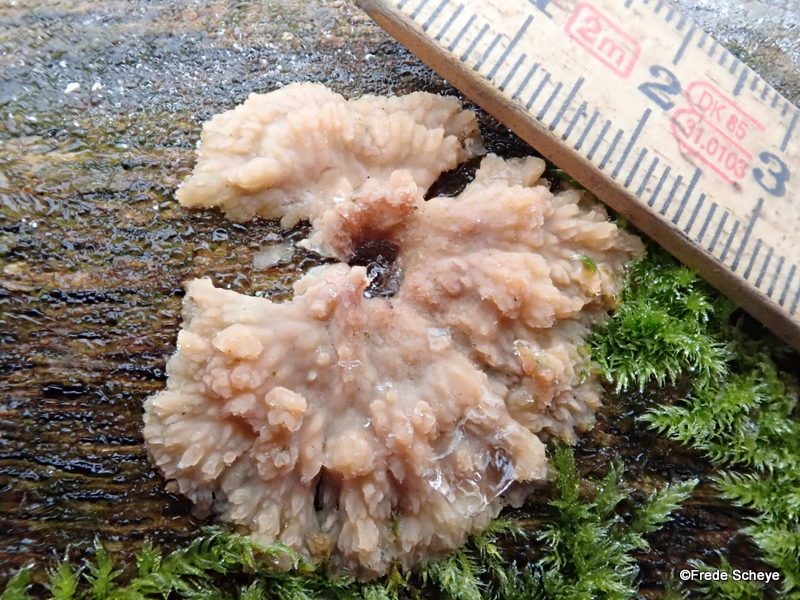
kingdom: Fungi
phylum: Basidiomycota
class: Agaricomycetes
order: Polyporales
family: Meruliaceae
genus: Phlebia
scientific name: Phlebia radiata
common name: stråle-åresvamp
